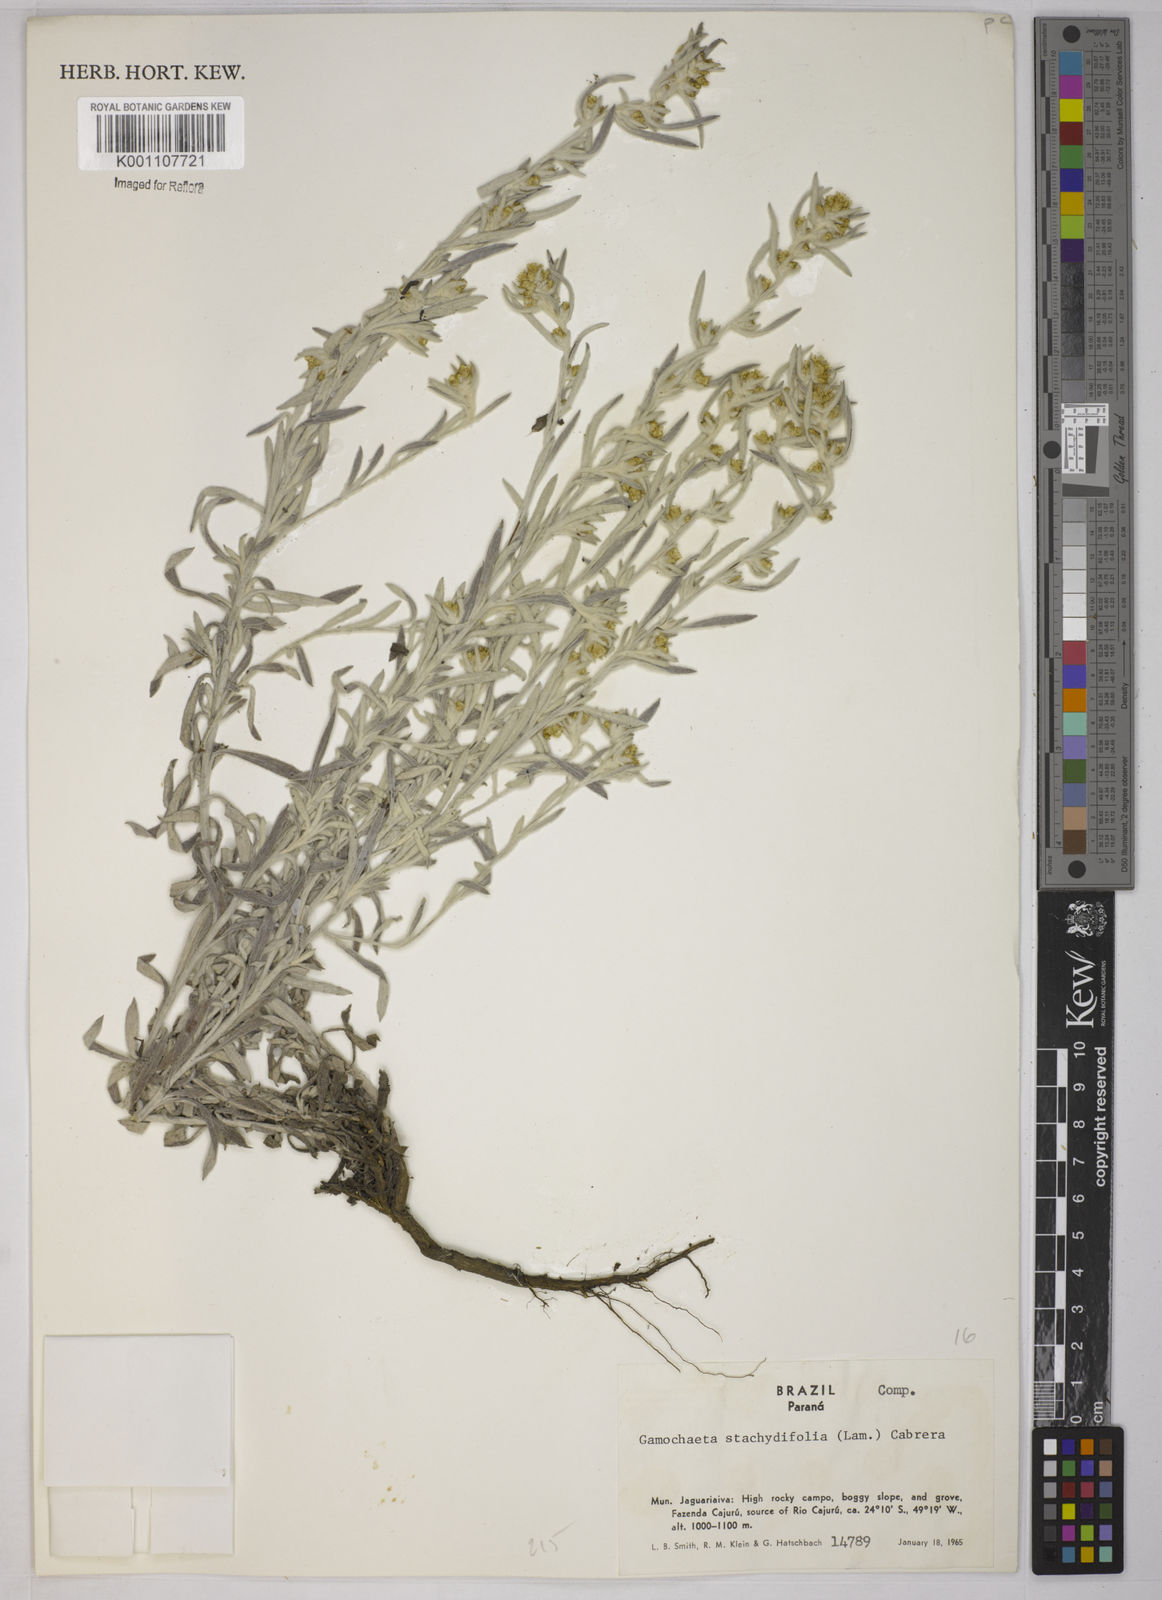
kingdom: Plantae
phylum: Tracheophyta
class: Magnoliopsida
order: Asterales
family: Asteraceae
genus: Gnaphalium
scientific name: Gnaphalium
